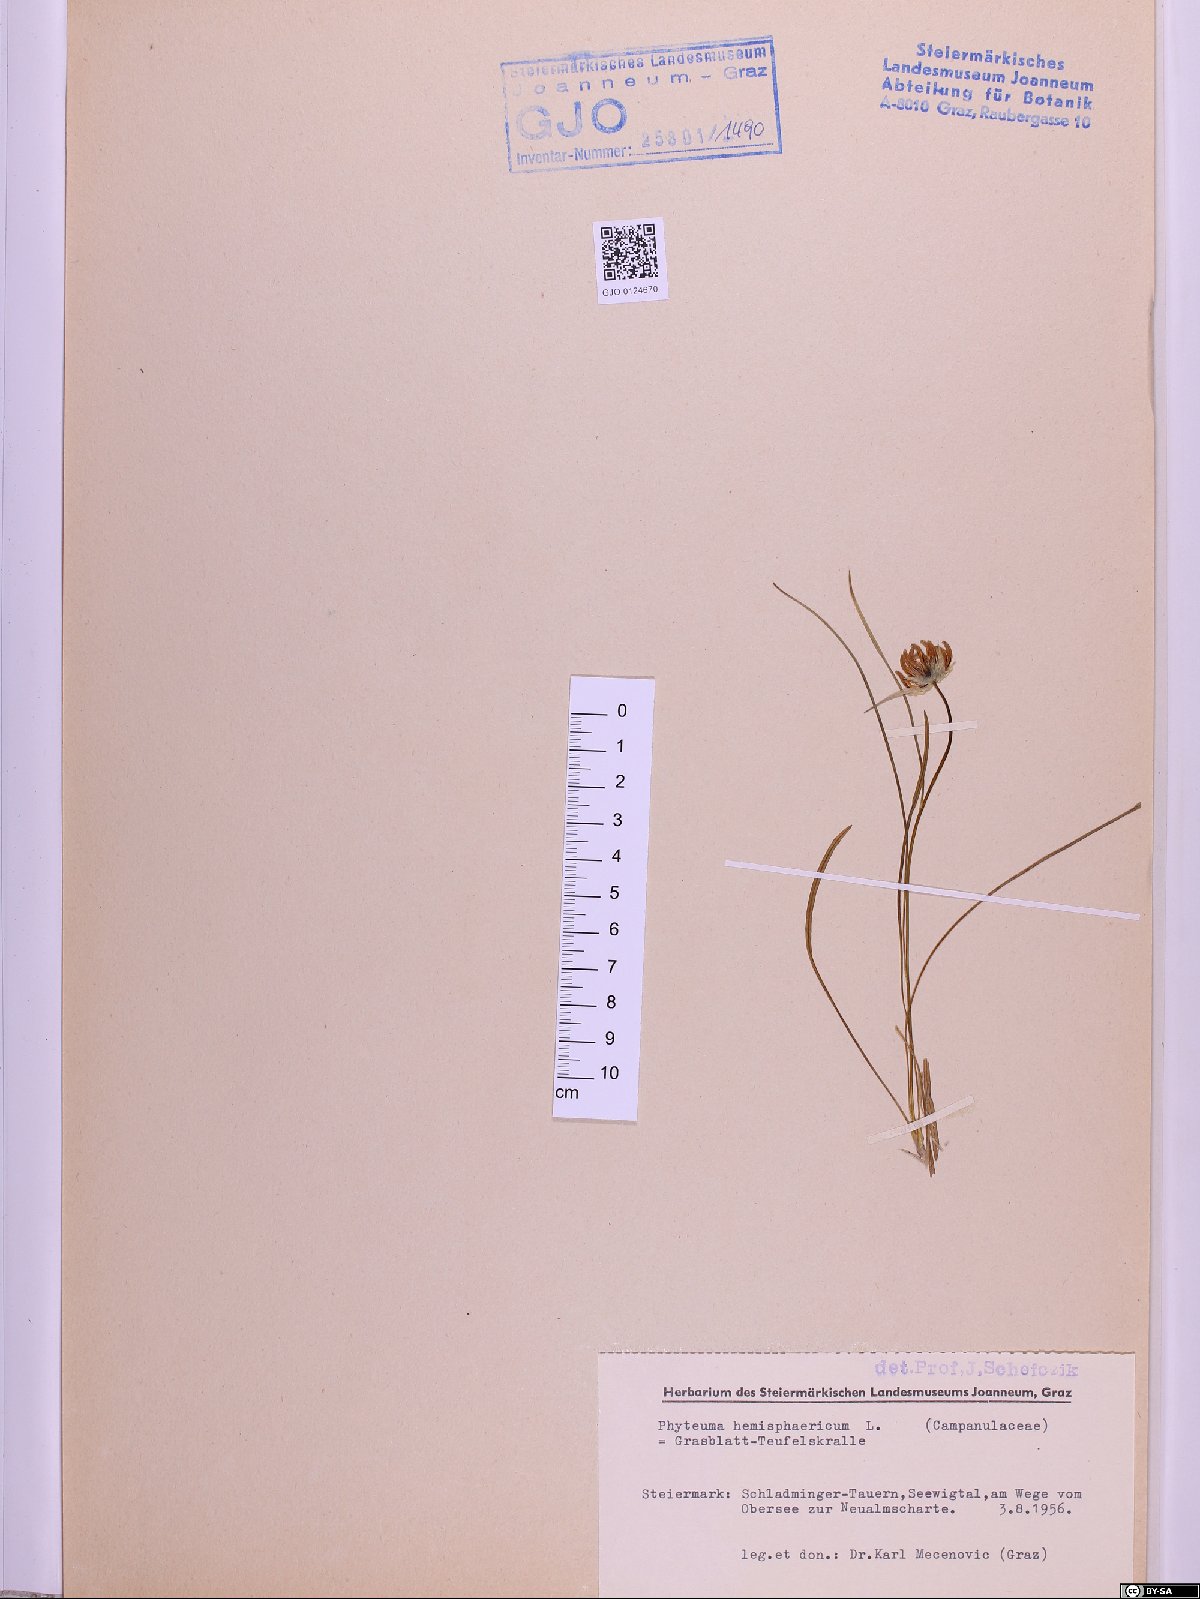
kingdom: Plantae
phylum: Tracheophyta
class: Magnoliopsida
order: Asterales
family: Campanulaceae
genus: Phyteuma
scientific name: Phyteuma hemisphaericum
